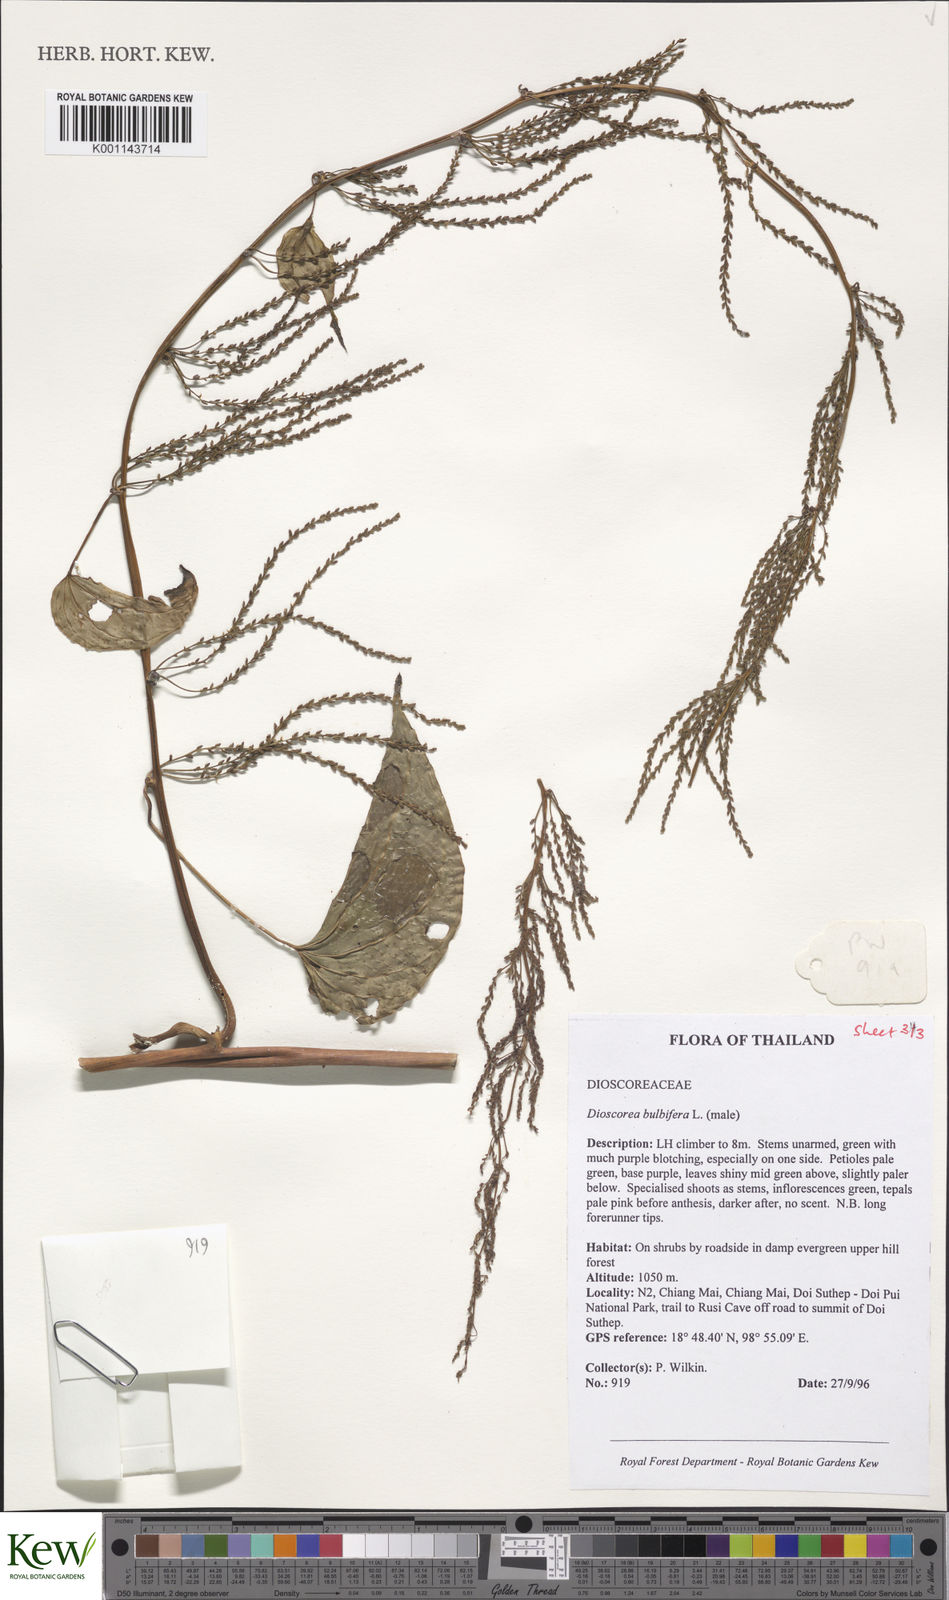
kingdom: Plantae
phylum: Tracheophyta
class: Liliopsida
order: Dioscoreales
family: Dioscoreaceae
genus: Dioscorea
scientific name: Dioscorea bulbifera
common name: Air yam
